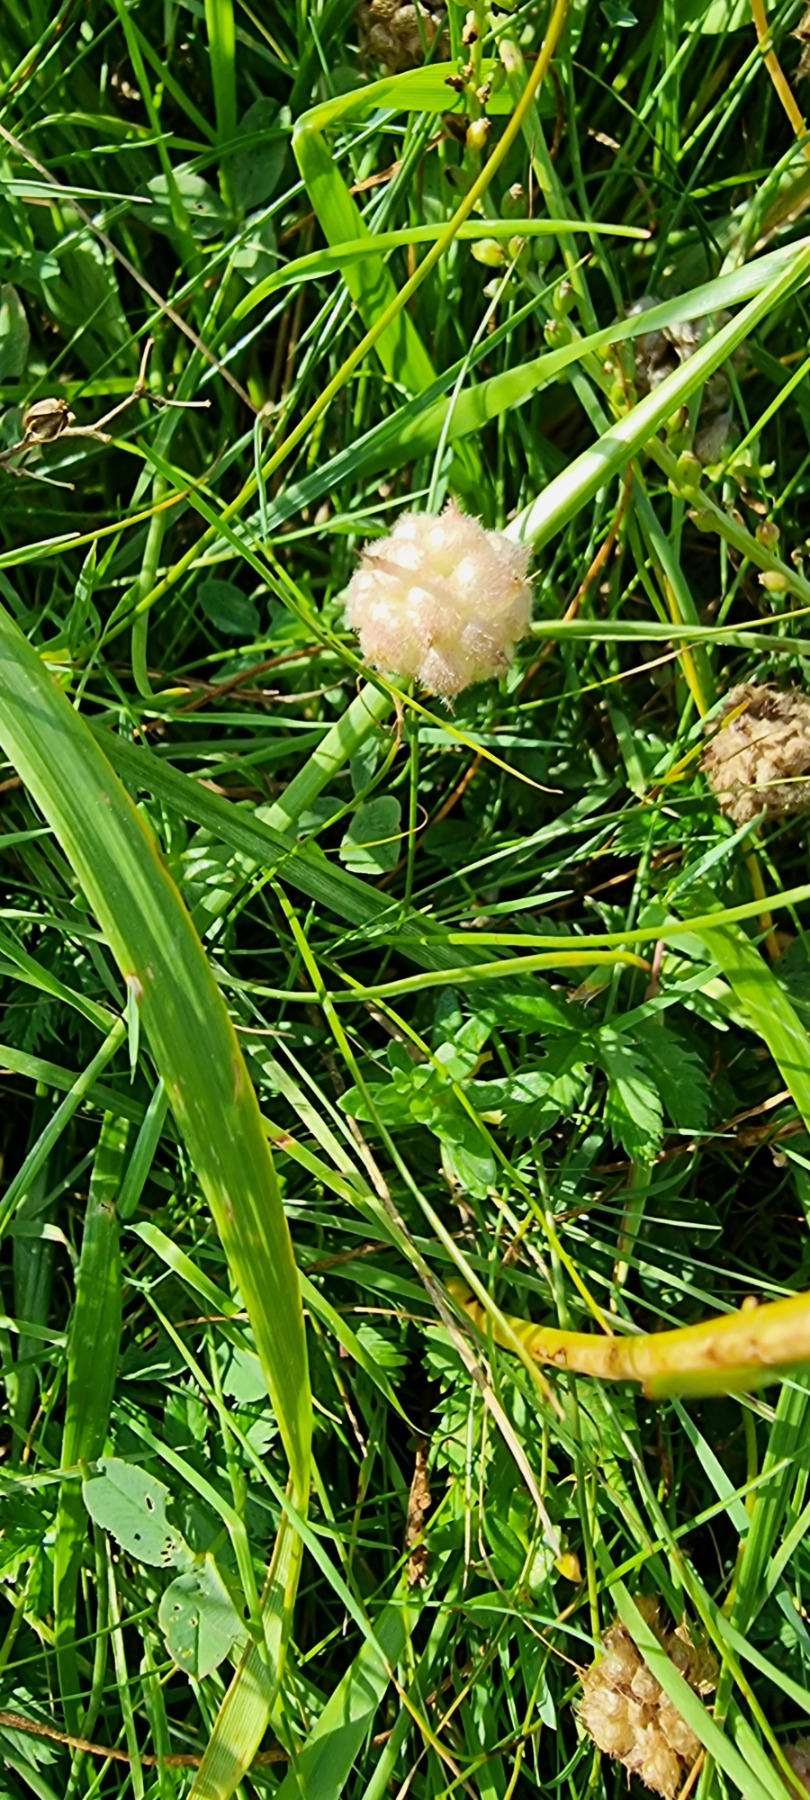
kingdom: Plantae
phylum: Tracheophyta
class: Magnoliopsida
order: Fabales
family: Fabaceae
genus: Trifolium
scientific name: Trifolium fragiferum
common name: Jordbær-kløver
